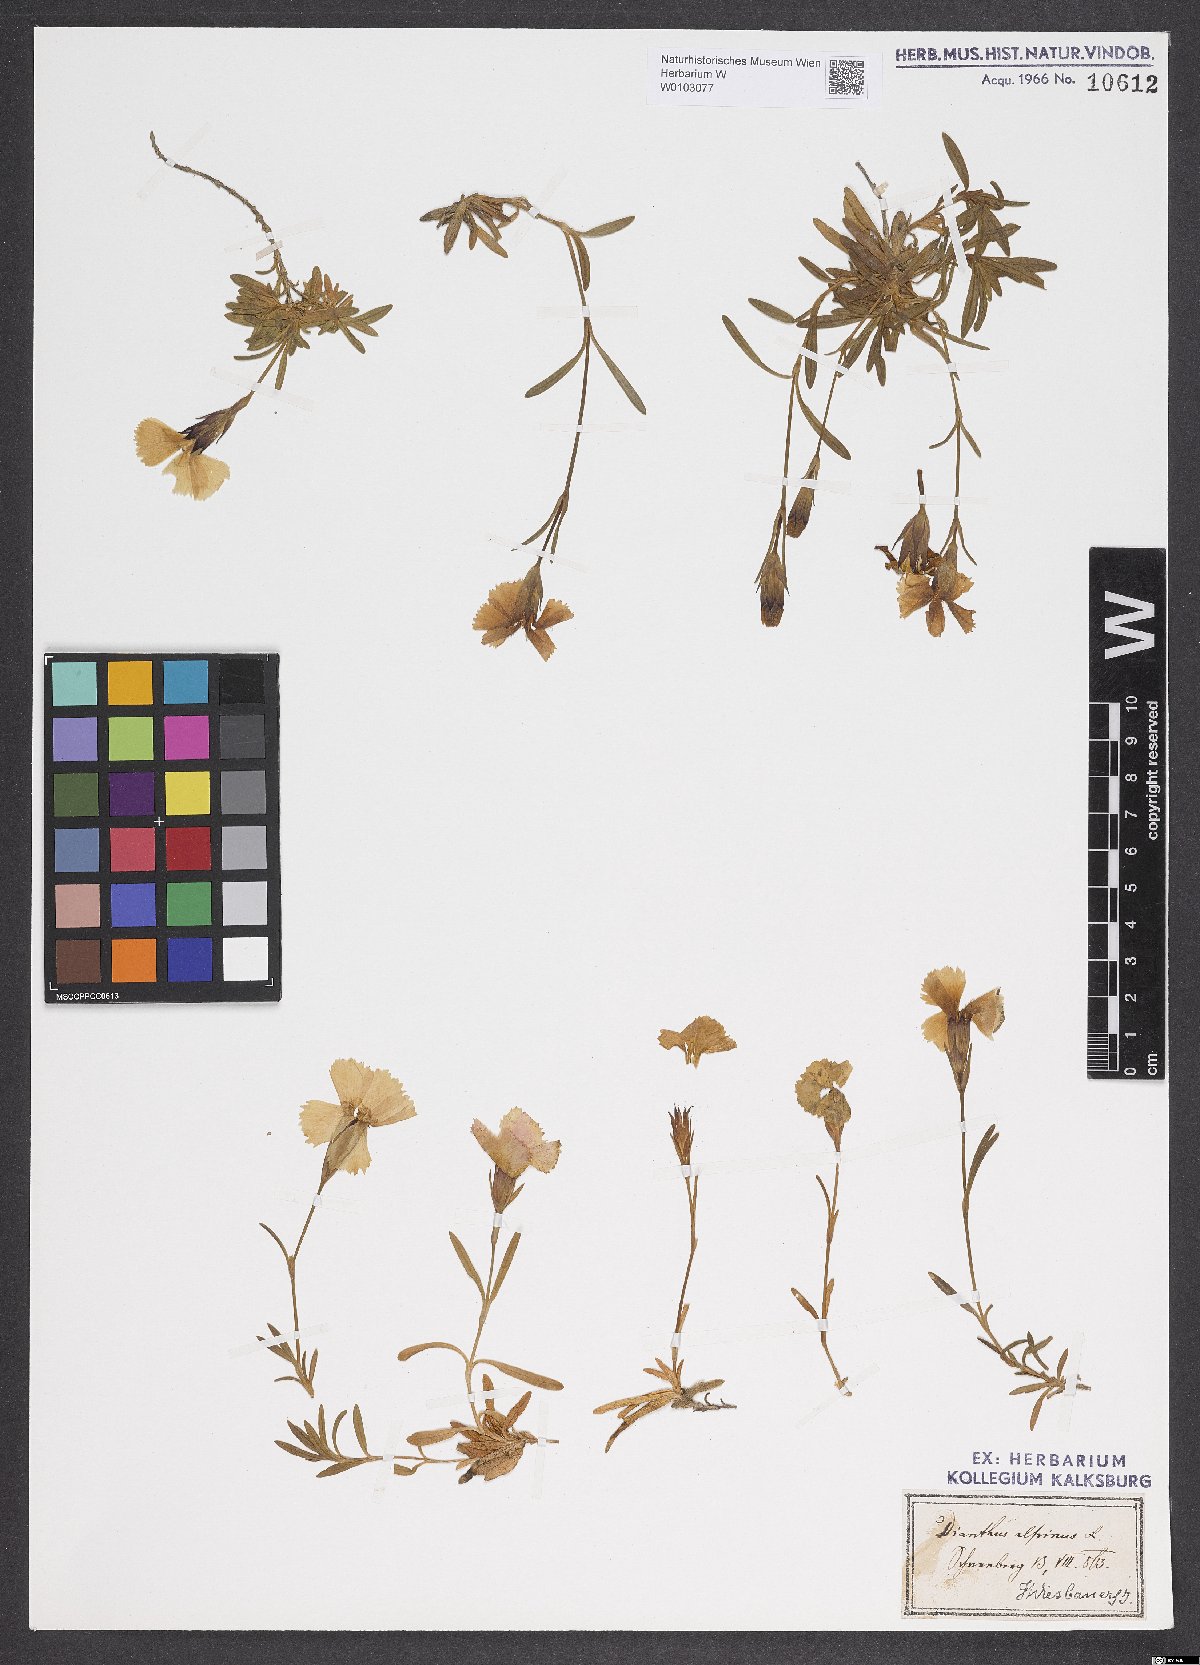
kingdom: Plantae
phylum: Tracheophyta
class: Magnoliopsida
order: Caryophyllales
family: Caryophyllaceae
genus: Dianthus
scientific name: Dianthus alpinus
